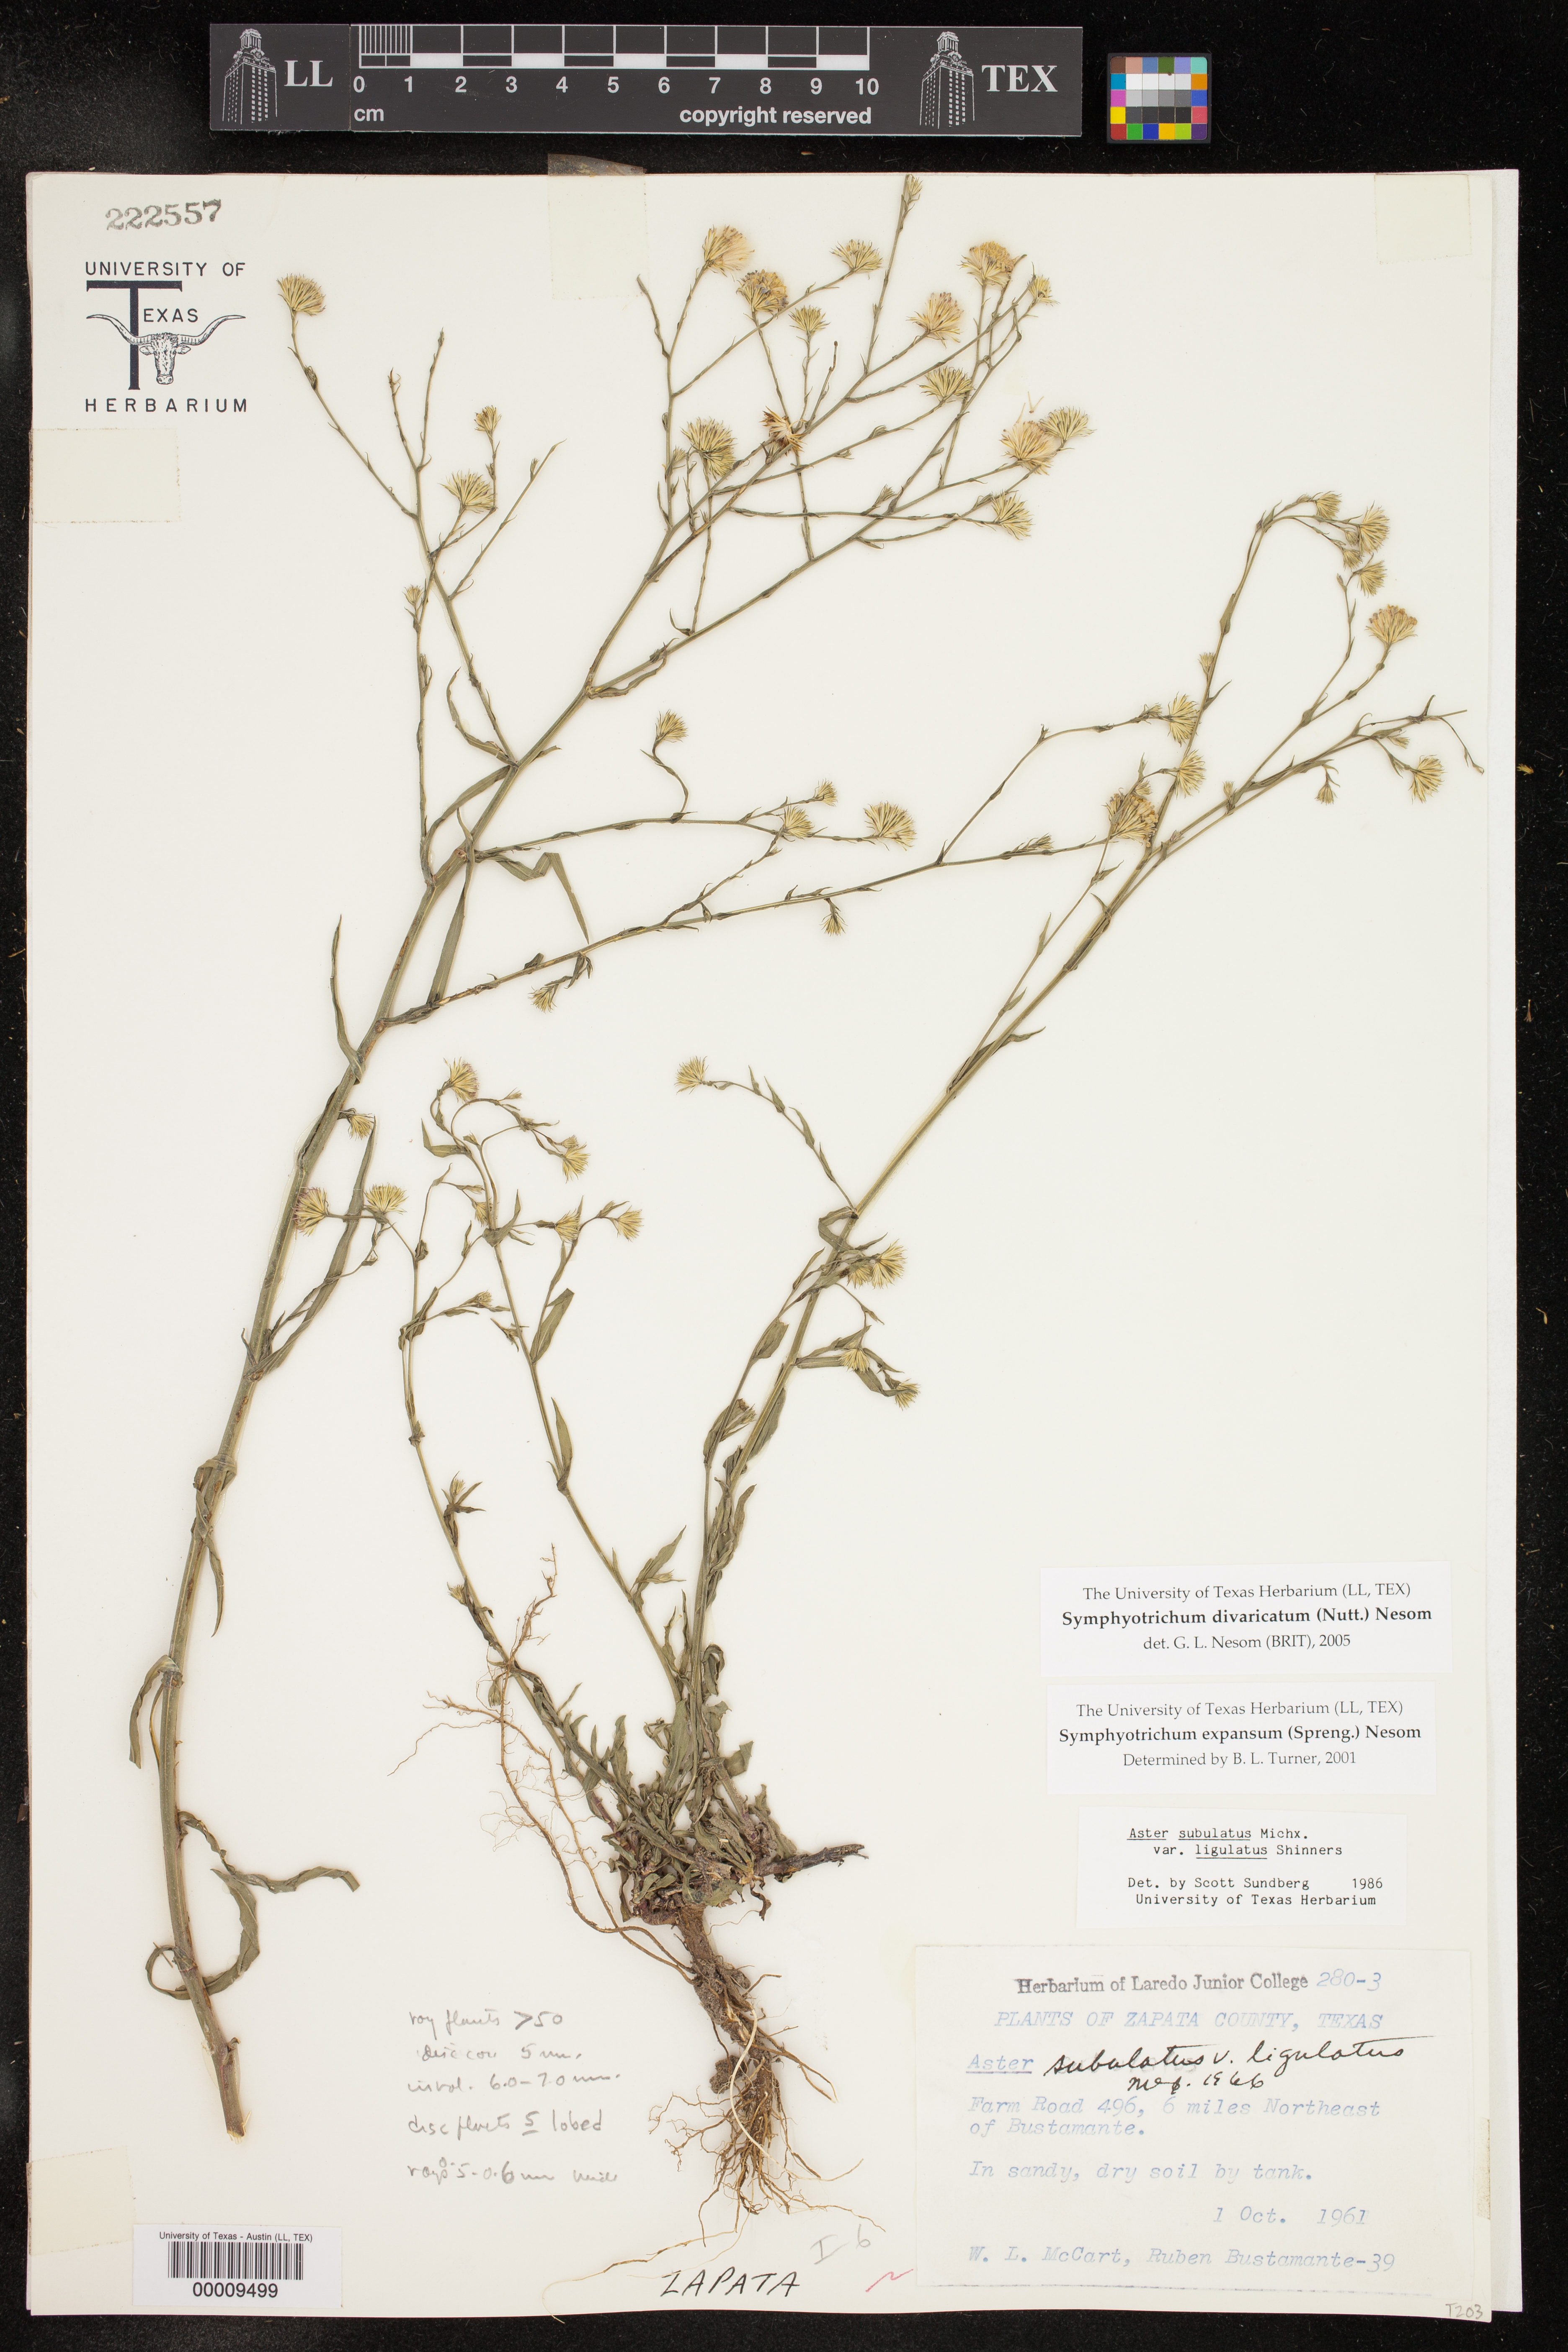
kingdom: Plantae
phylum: Tracheophyta
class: Magnoliopsida
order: Asterales
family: Asteraceae
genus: Symphyotrichum
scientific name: Symphyotrichum divaricatum
